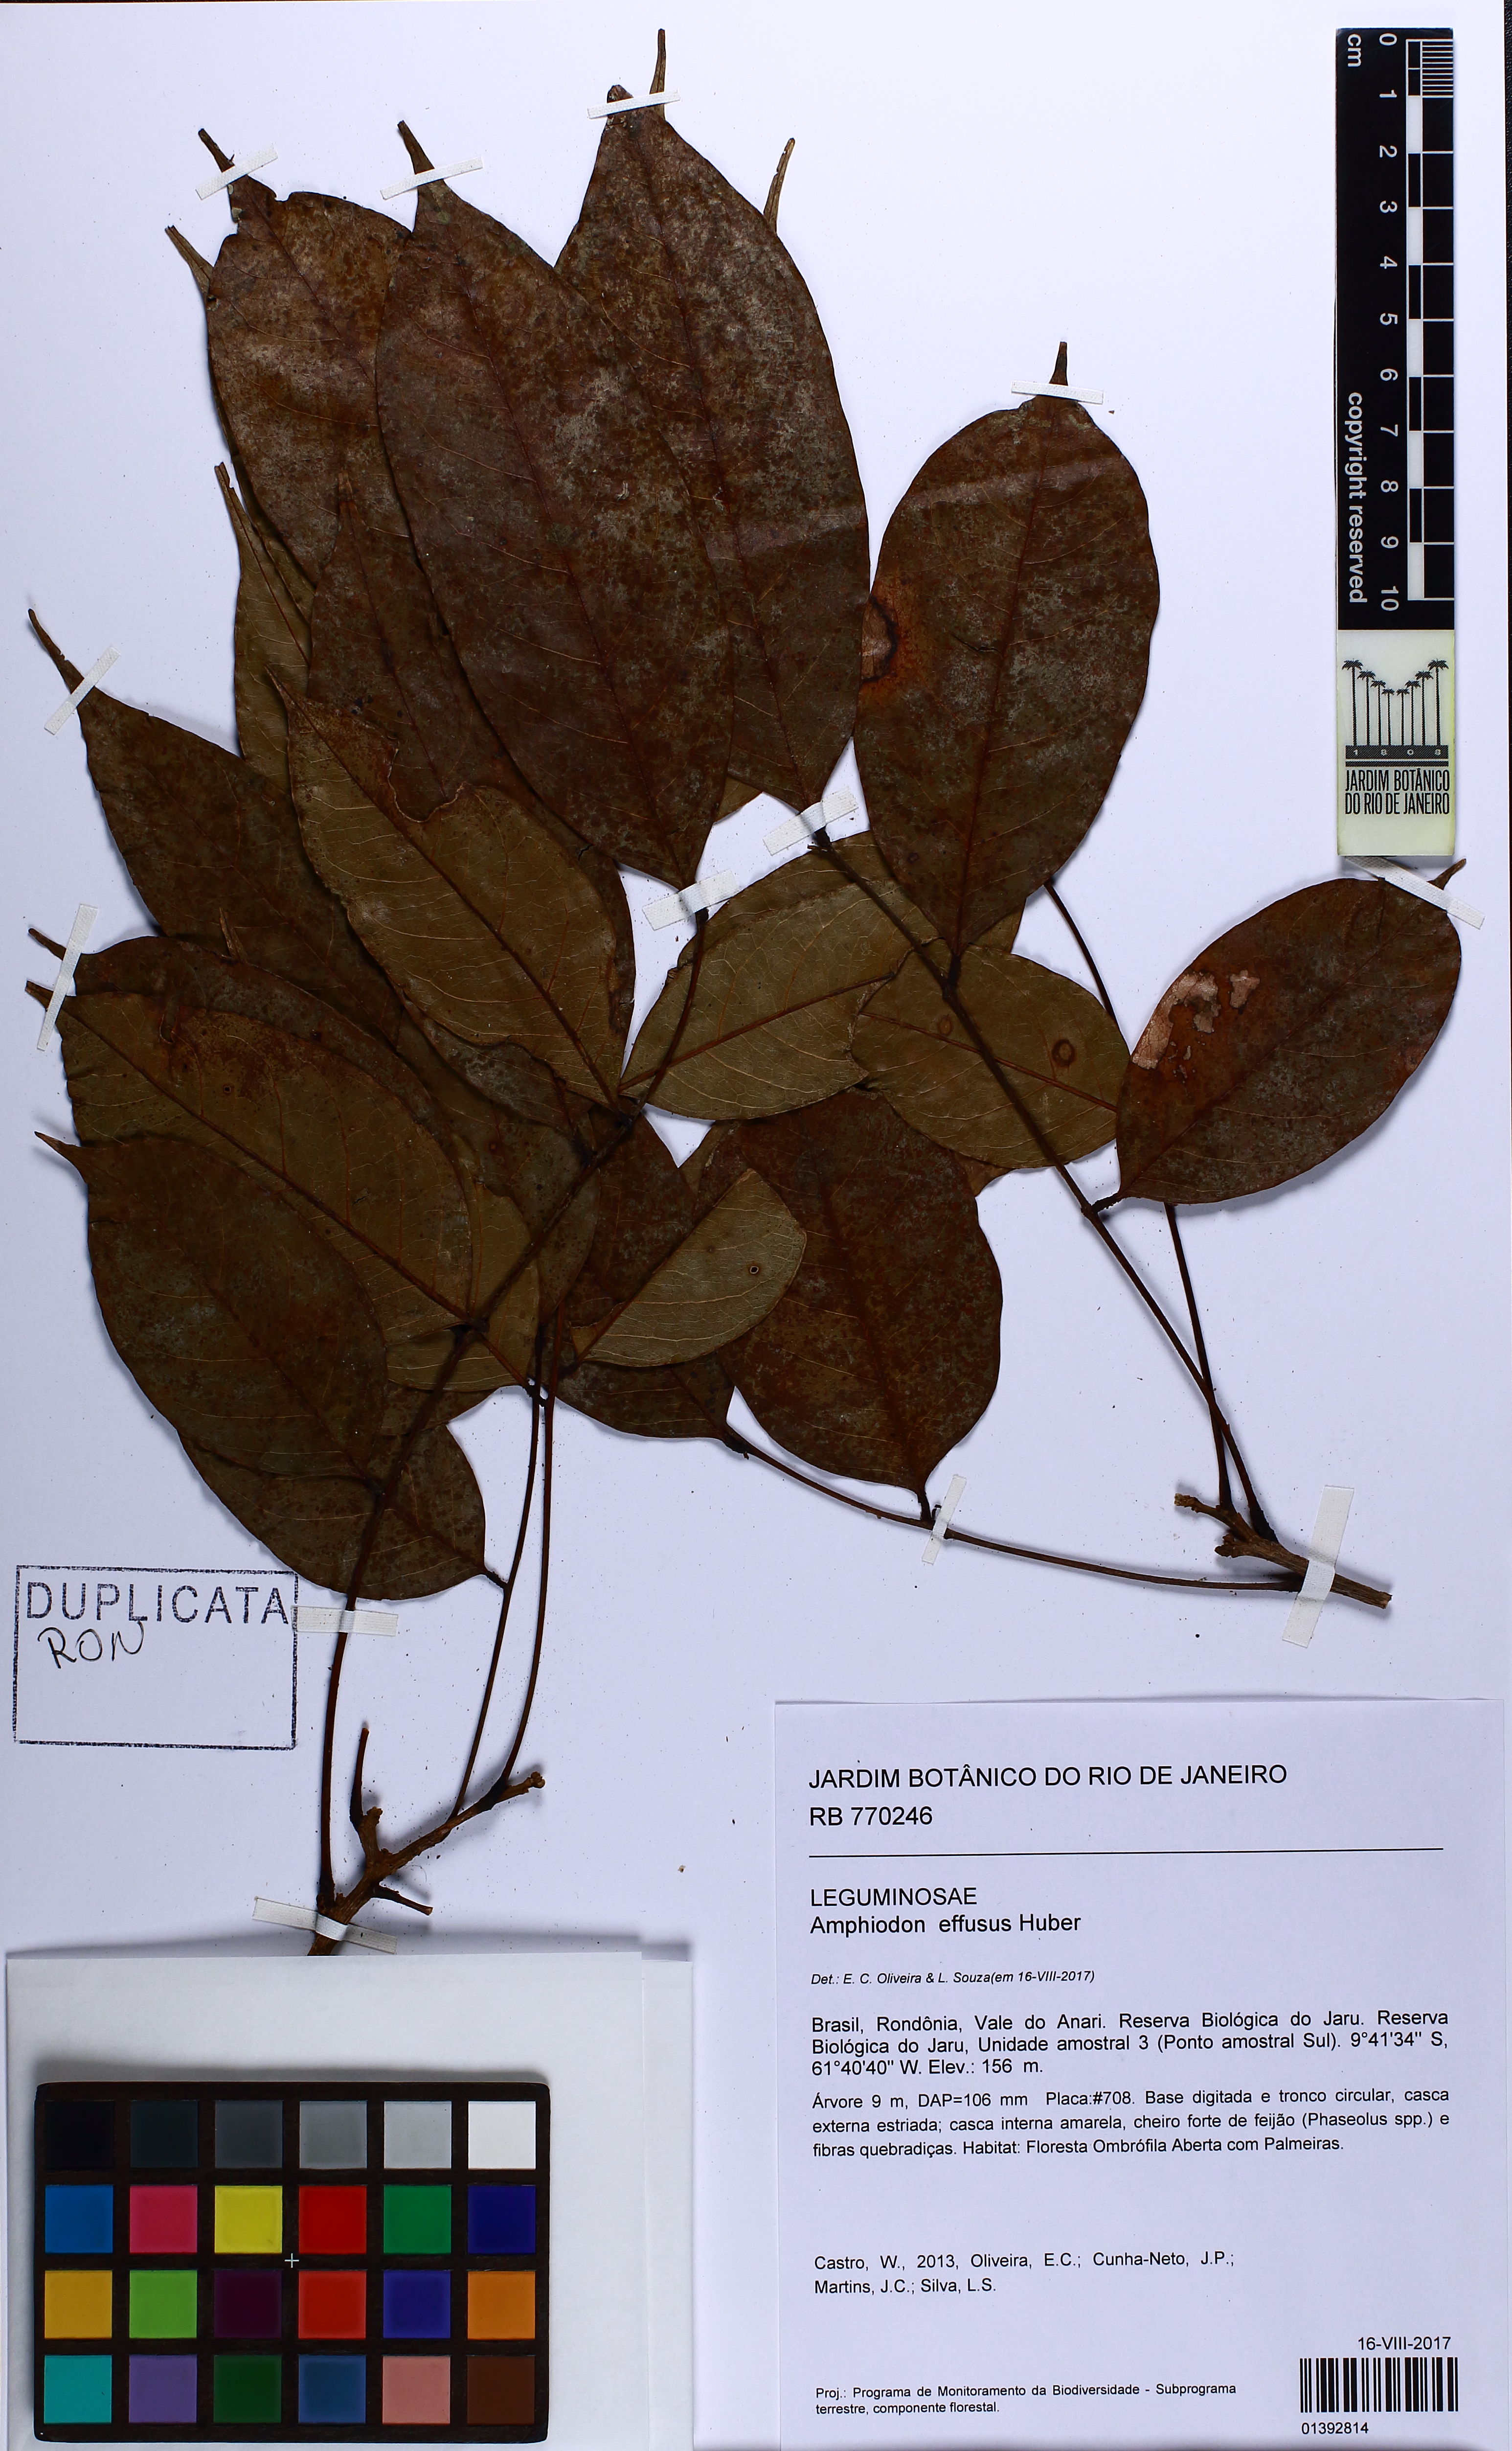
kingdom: Plantae
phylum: Tracheophyta
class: Magnoliopsida
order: Fabales
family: Fabaceae
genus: Amphiodon
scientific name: Amphiodon effusus
